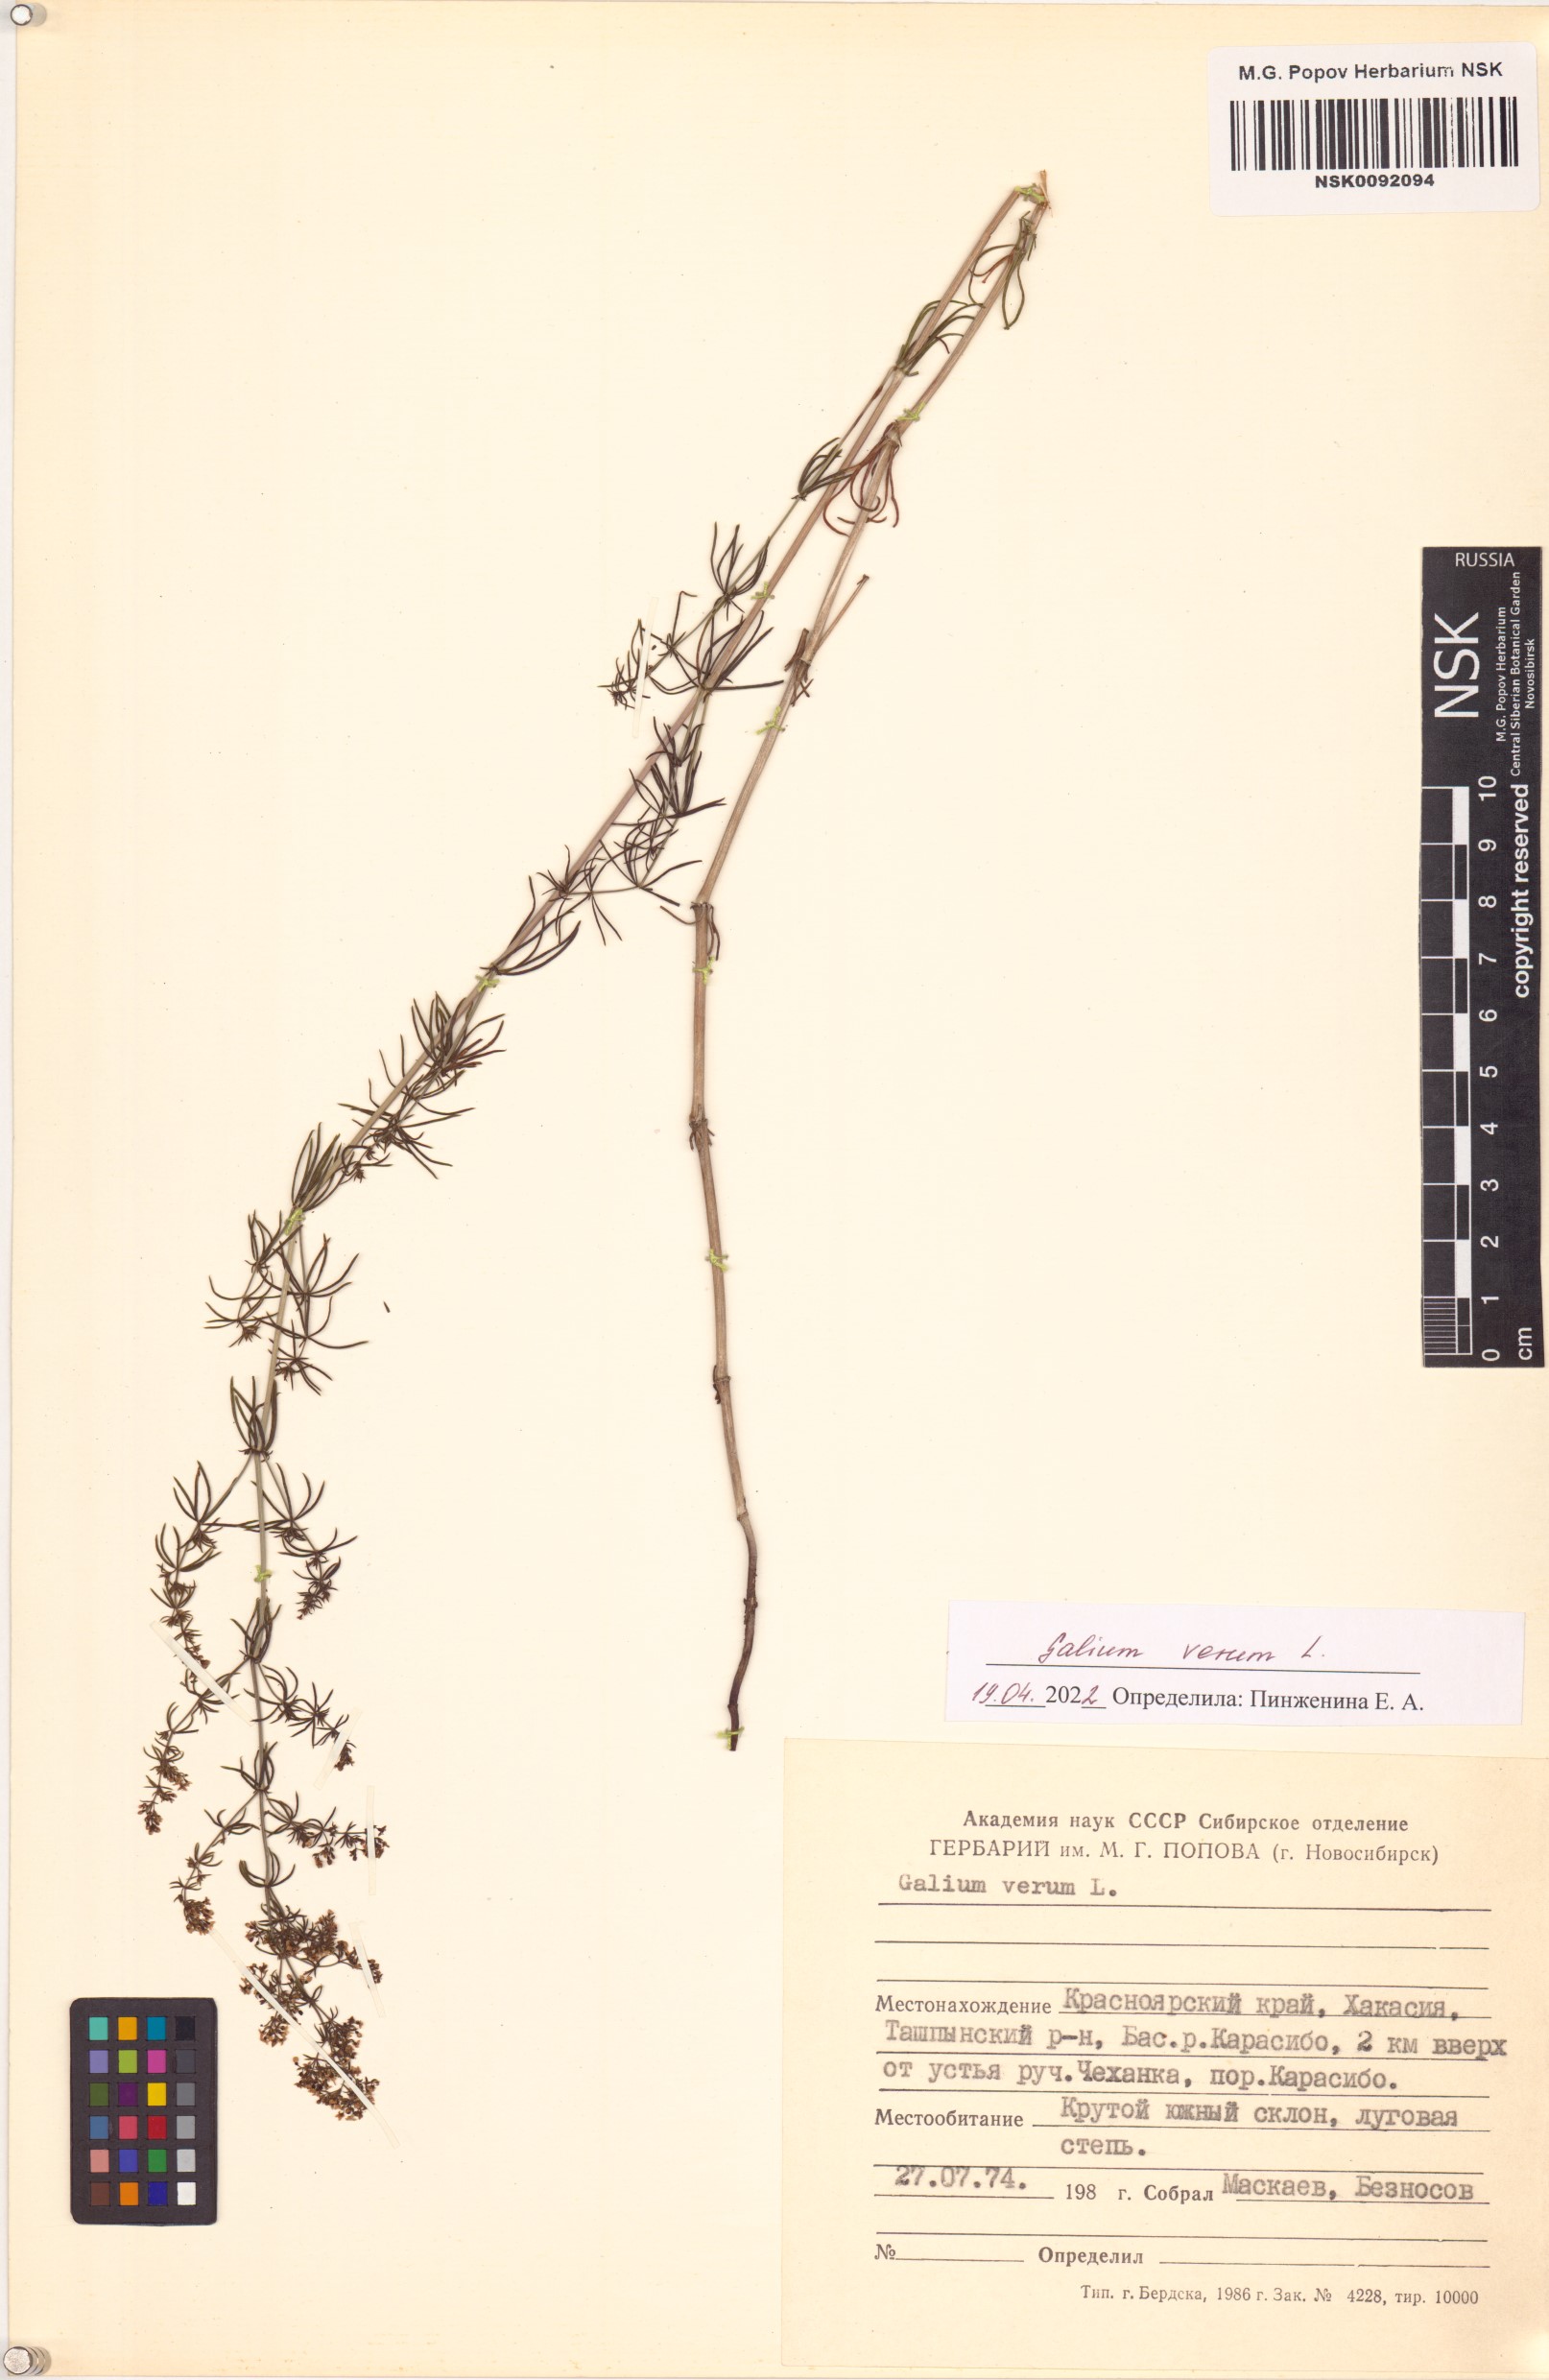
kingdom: Plantae
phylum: Tracheophyta
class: Magnoliopsida
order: Gentianales
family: Rubiaceae
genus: Galium
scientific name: Galium verum
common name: Lady's bedstraw
